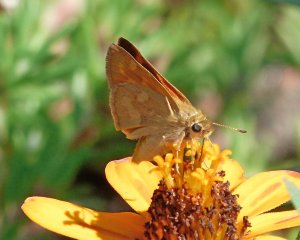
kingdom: Animalia
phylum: Arthropoda
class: Insecta
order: Lepidoptera
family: Hesperiidae
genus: Ochlodes
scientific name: Ochlodes sylvanoides
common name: Woodland Skipper
